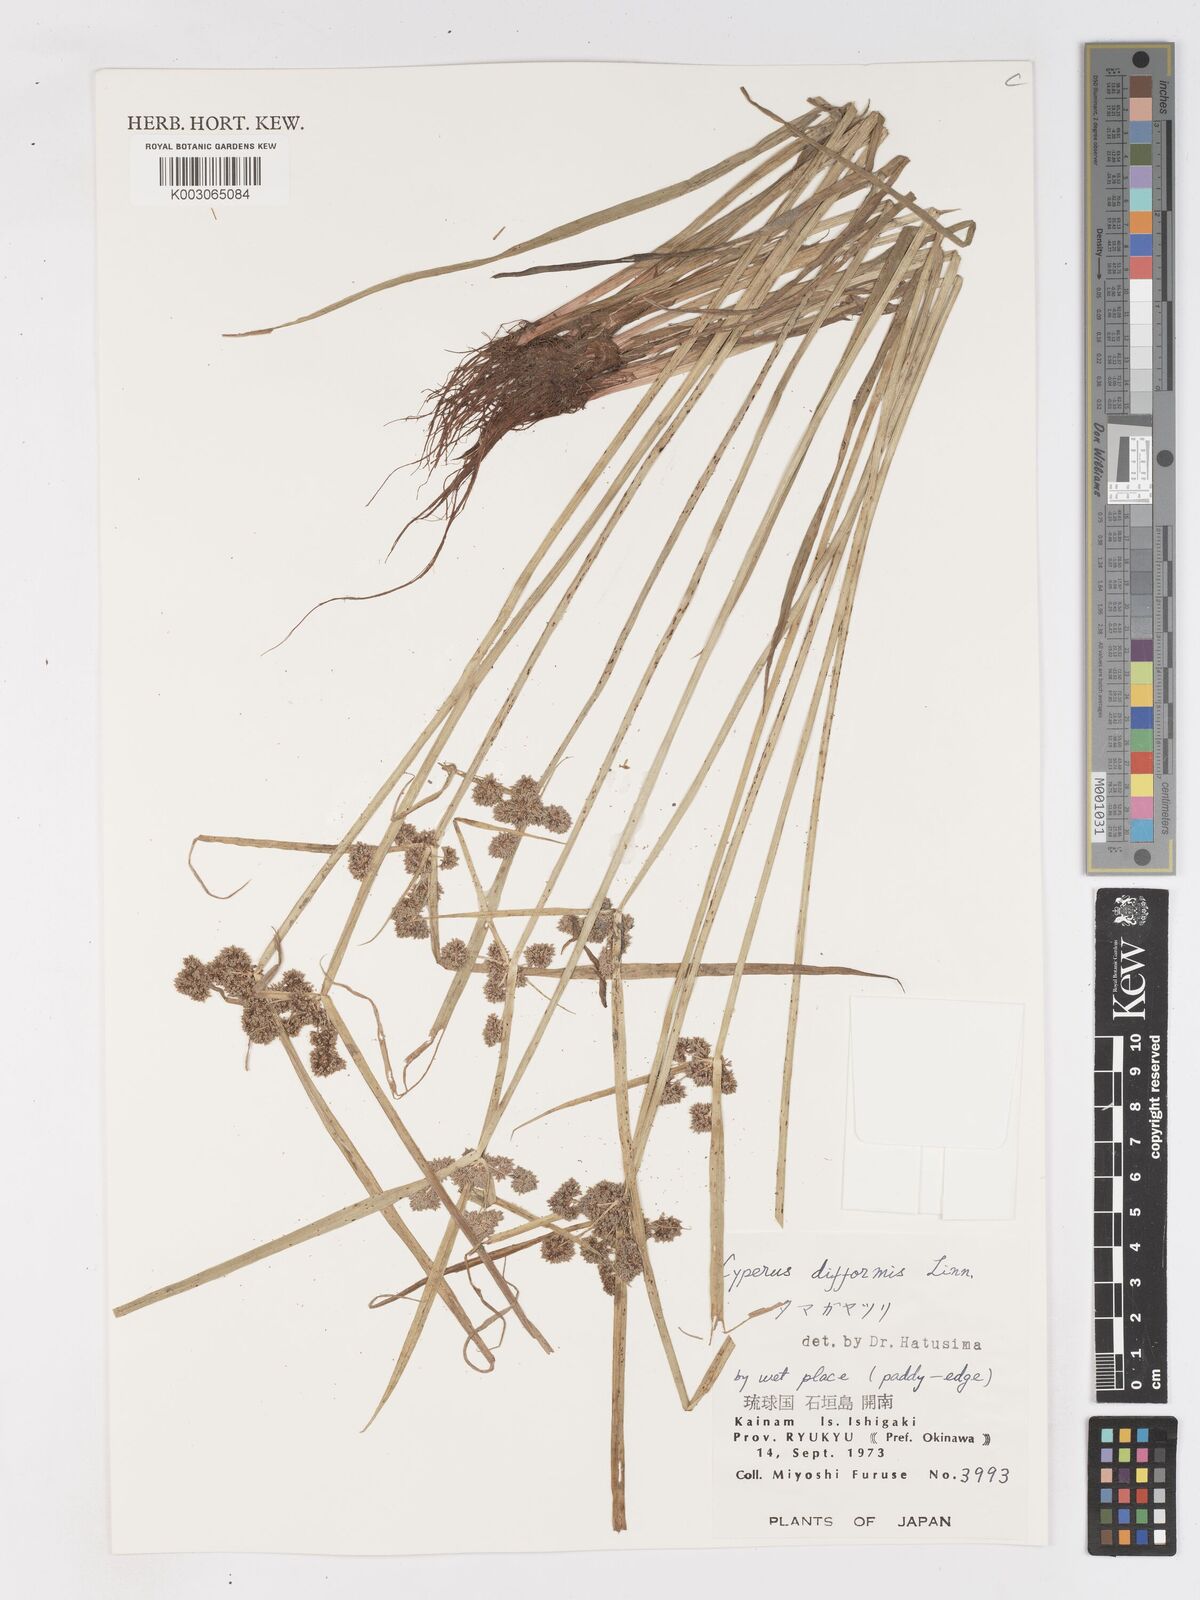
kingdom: Plantae
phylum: Tracheophyta
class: Liliopsida
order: Poales
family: Cyperaceae
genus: Cyperus
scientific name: Cyperus difformis
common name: Variable flatsedge
